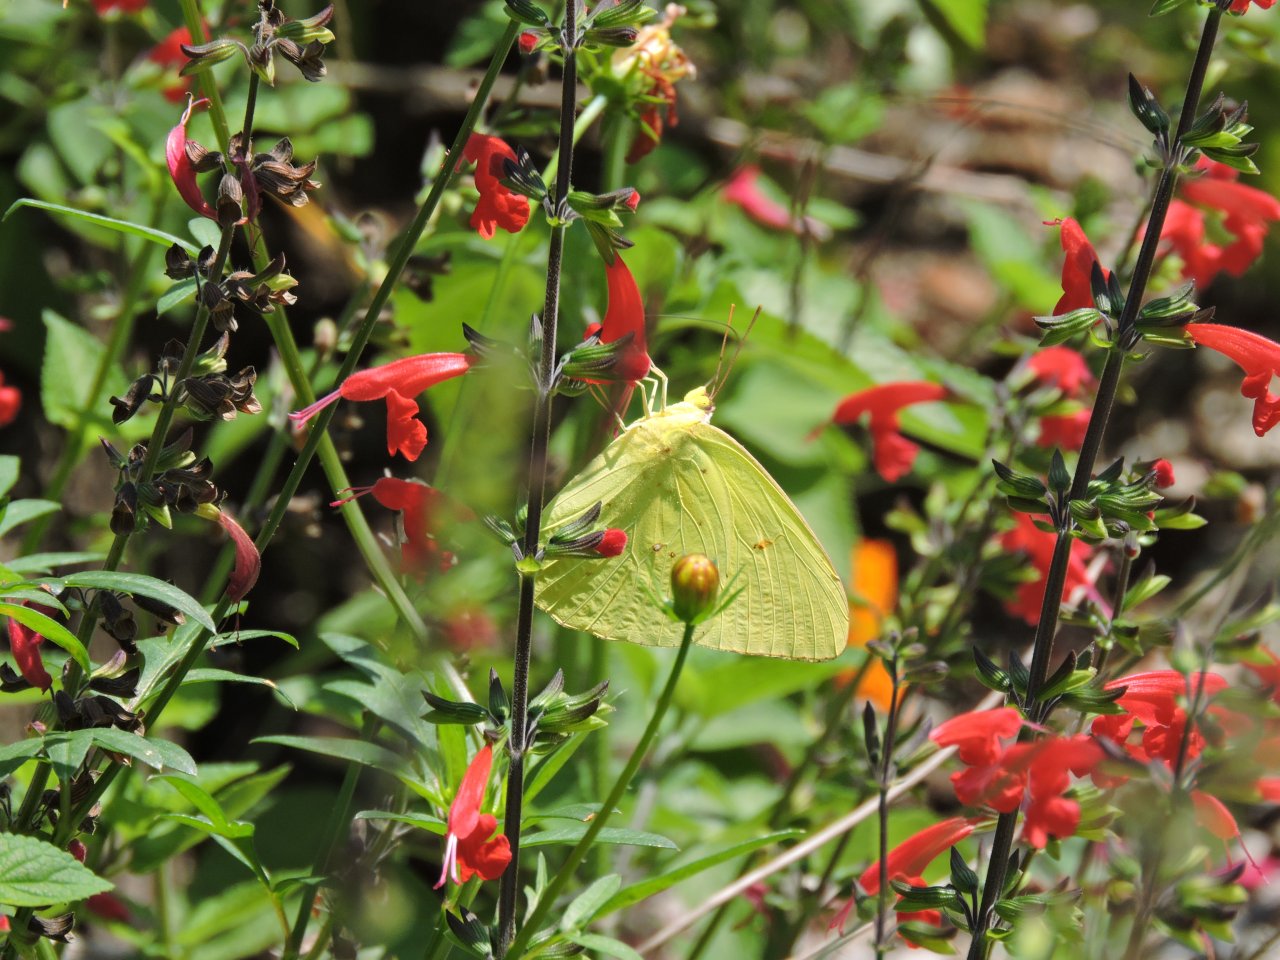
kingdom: Animalia
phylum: Arthropoda
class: Insecta
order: Lepidoptera
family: Pieridae
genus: Phoebis
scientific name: Phoebis sennae
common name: Cloudless Sulphur
